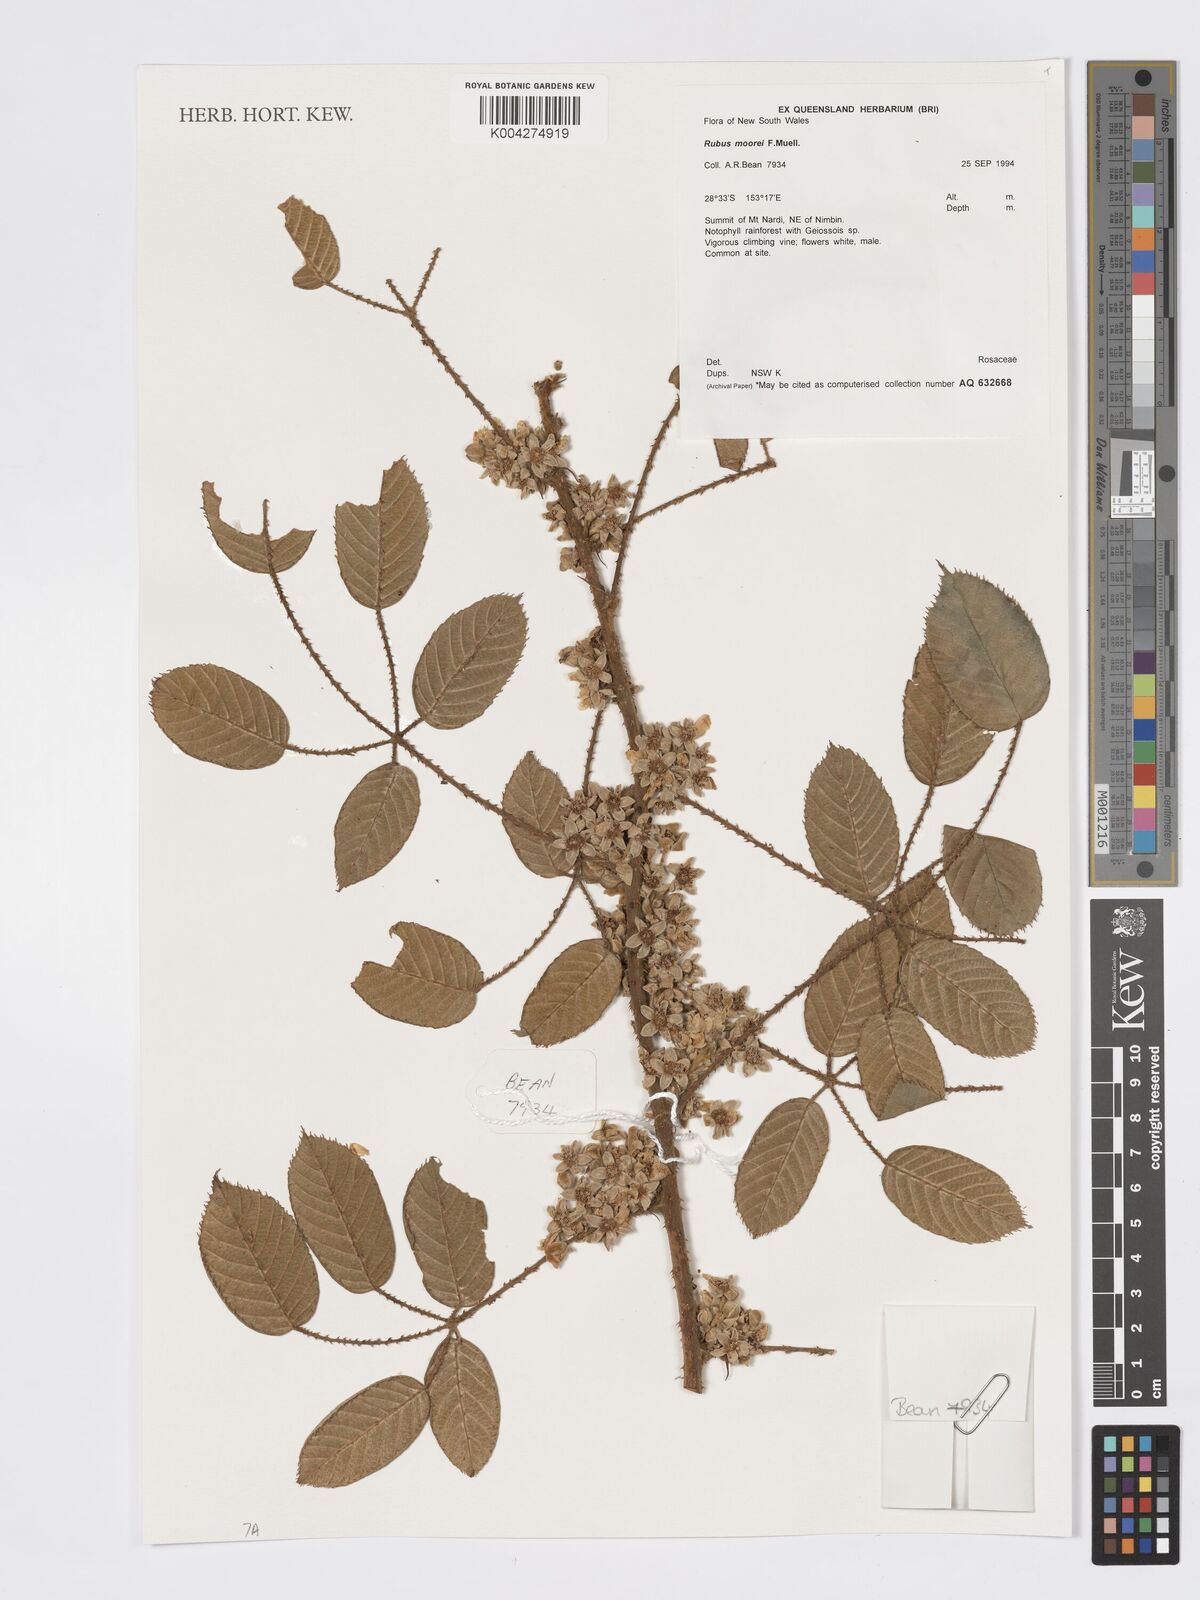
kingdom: Plantae
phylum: Tracheophyta
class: Magnoliopsida
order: Rosales
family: Rosaceae
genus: Rubus
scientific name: Rubus moorei
